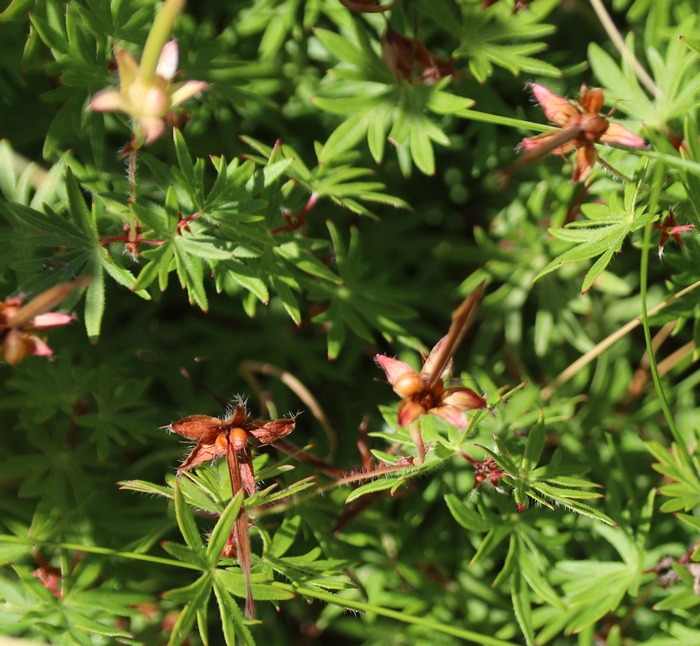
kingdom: Plantae
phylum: Tracheophyta
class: Magnoliopsida
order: Geraniales
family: Geraniaceae
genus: Geranium
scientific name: Geranium sanguineum
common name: Blodrød storkenæb
